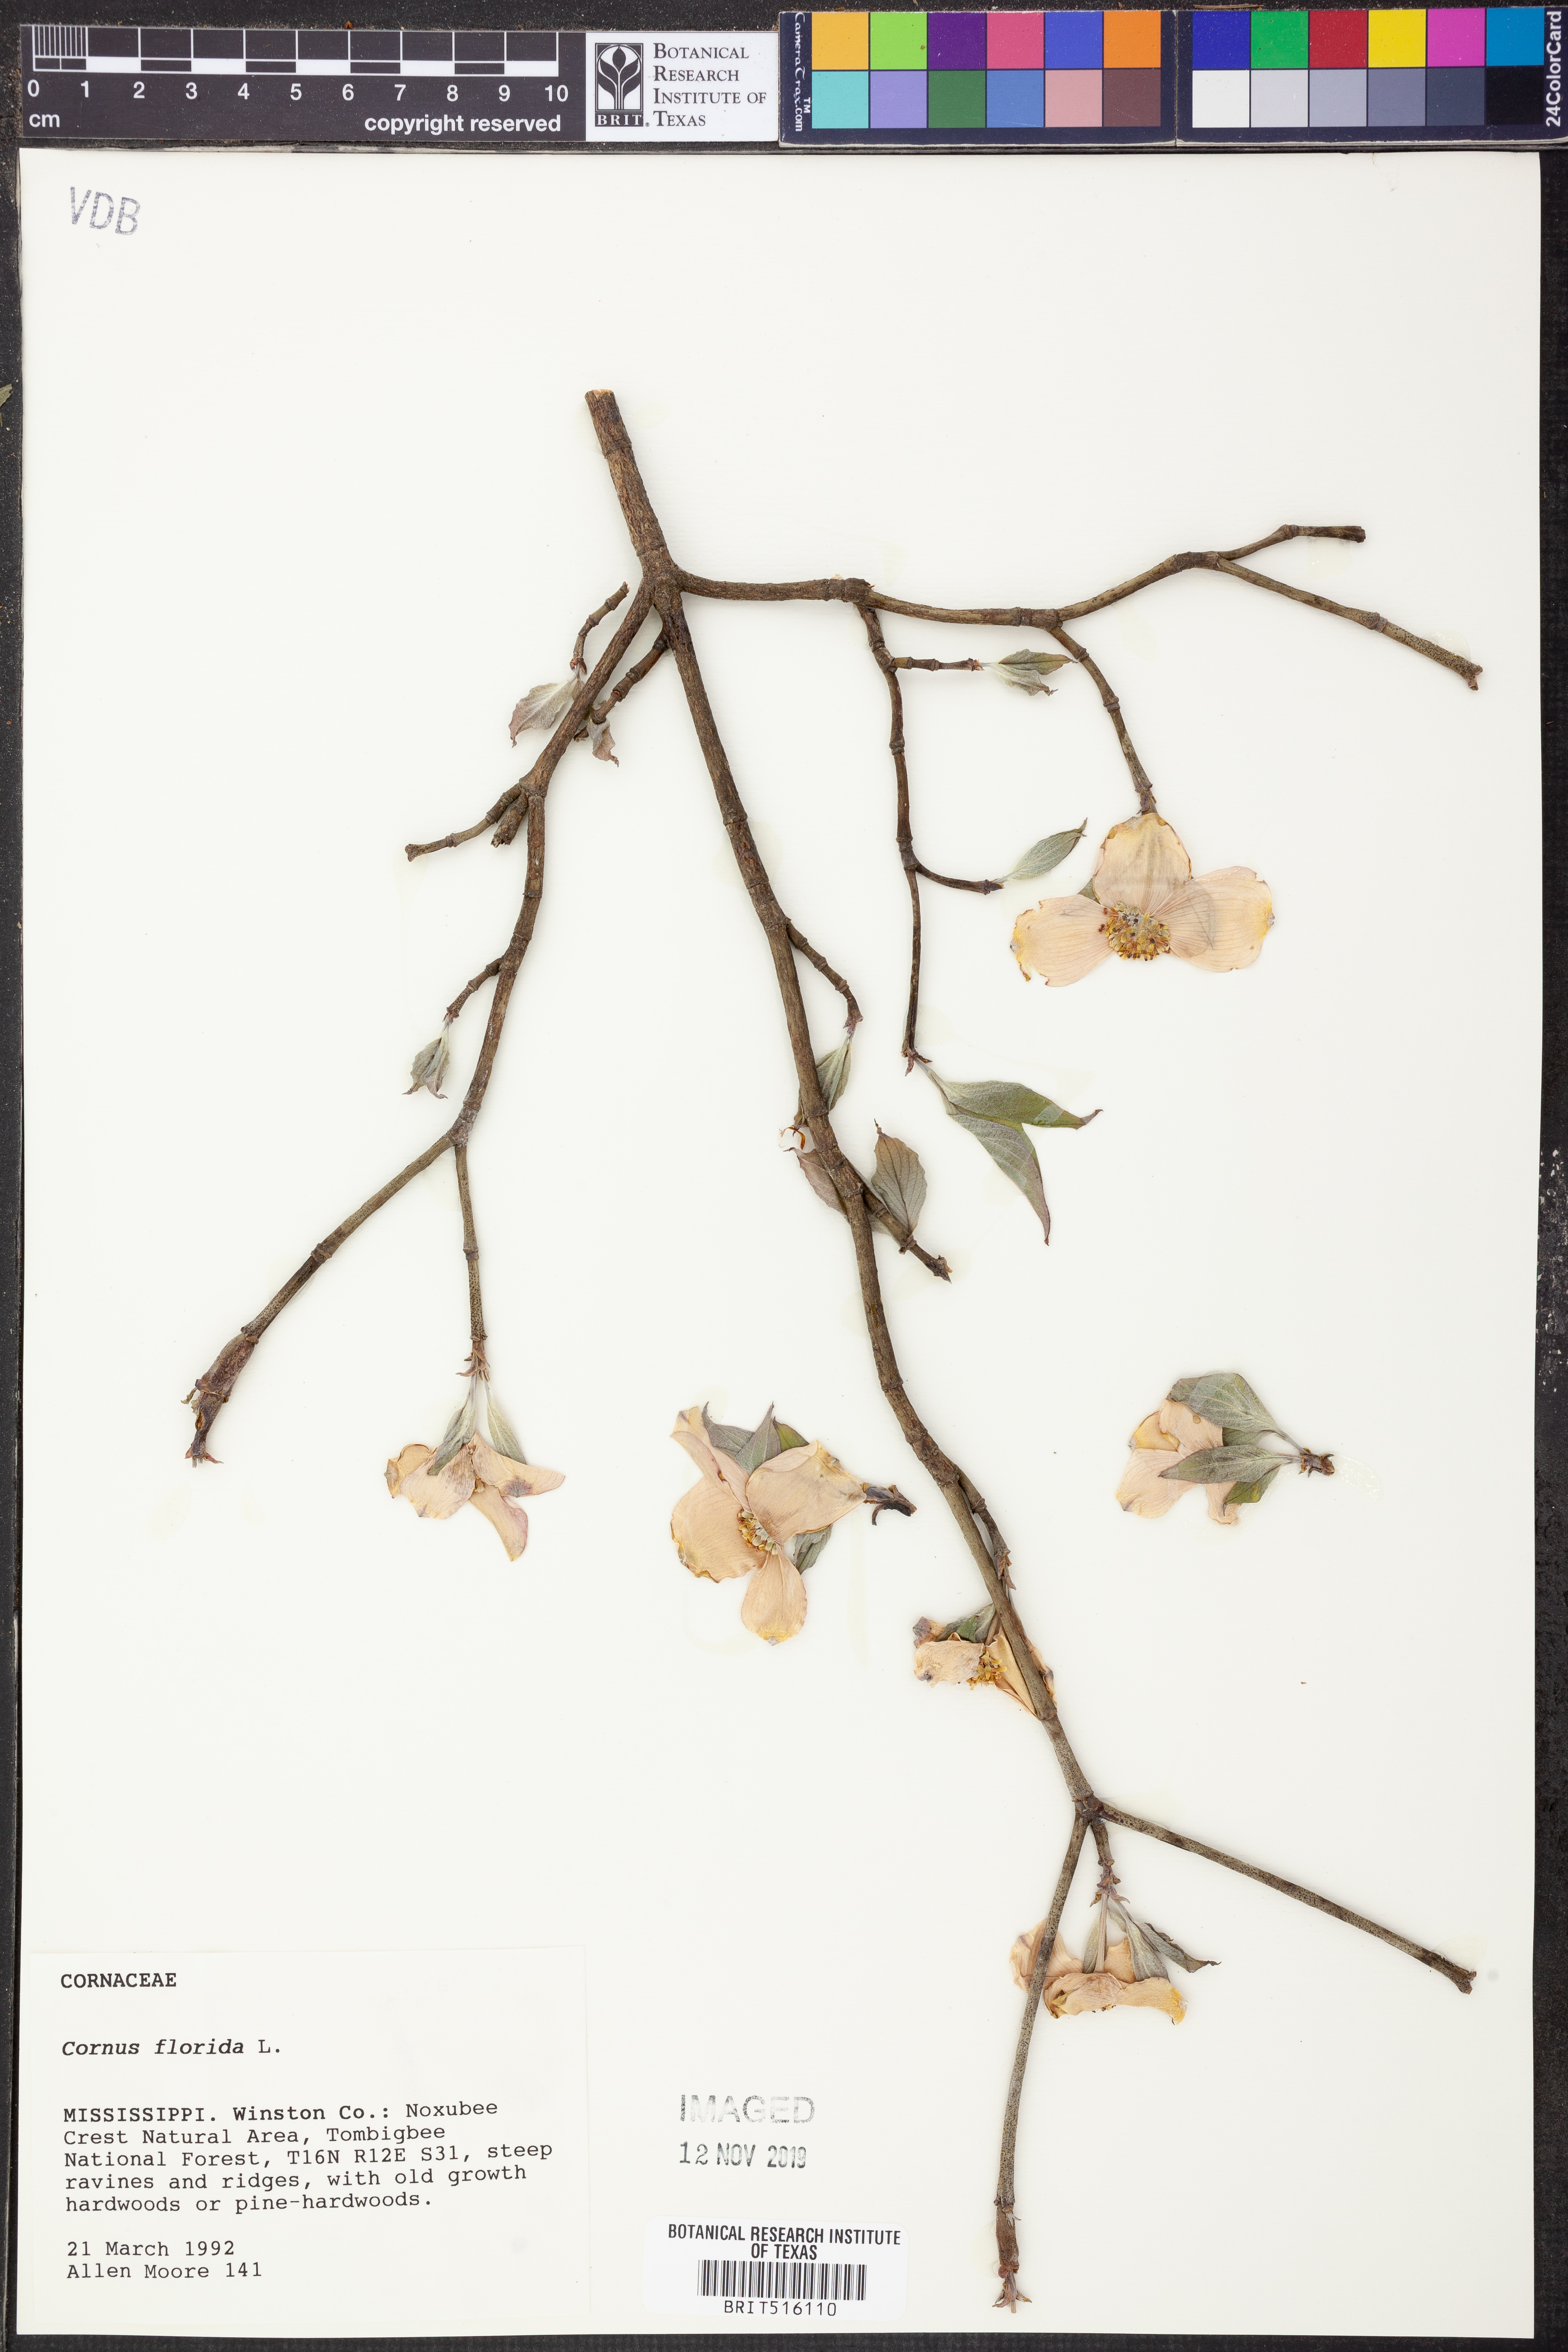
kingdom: Plantae
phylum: Tracheophyta
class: Magnoliopsida
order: Cornales
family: Cornaceae
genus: Cornus
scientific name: Cornus florida
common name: Flowering dogwood
